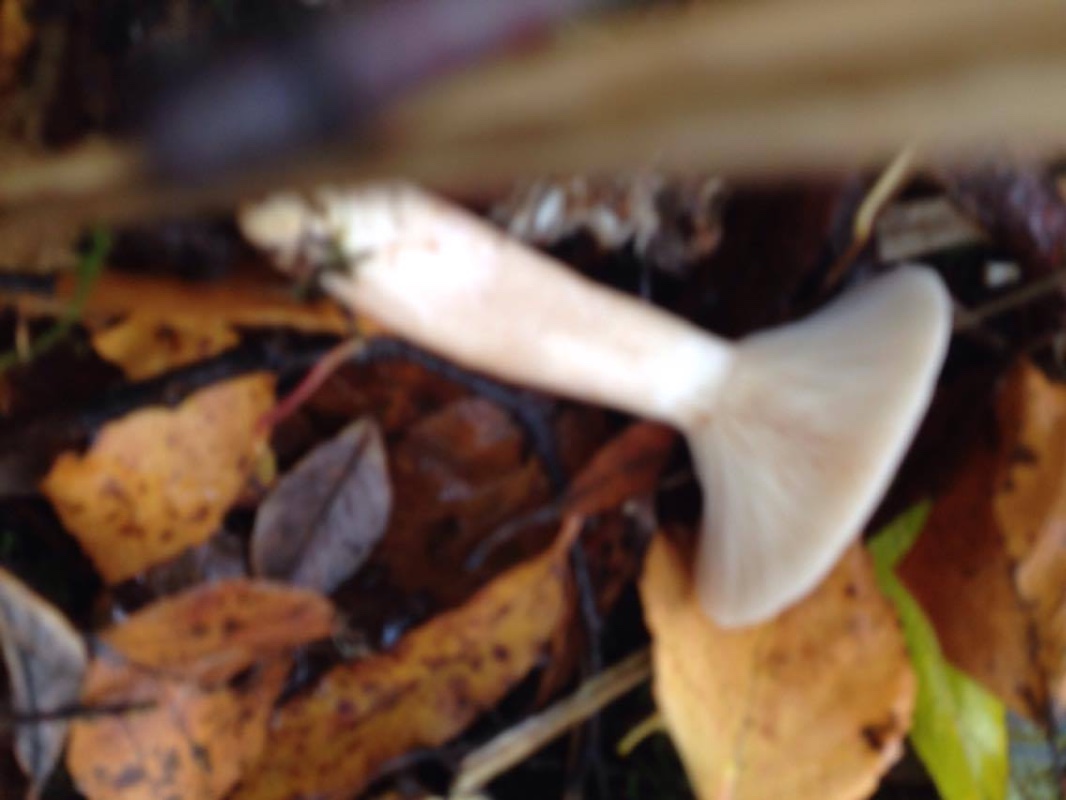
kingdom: Fungi
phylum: Basidiomycota
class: Agaricomycetes
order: Russulales
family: Russulaceae
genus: Lactarius
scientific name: Lactarius rufus
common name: rødbrun mælkehat
